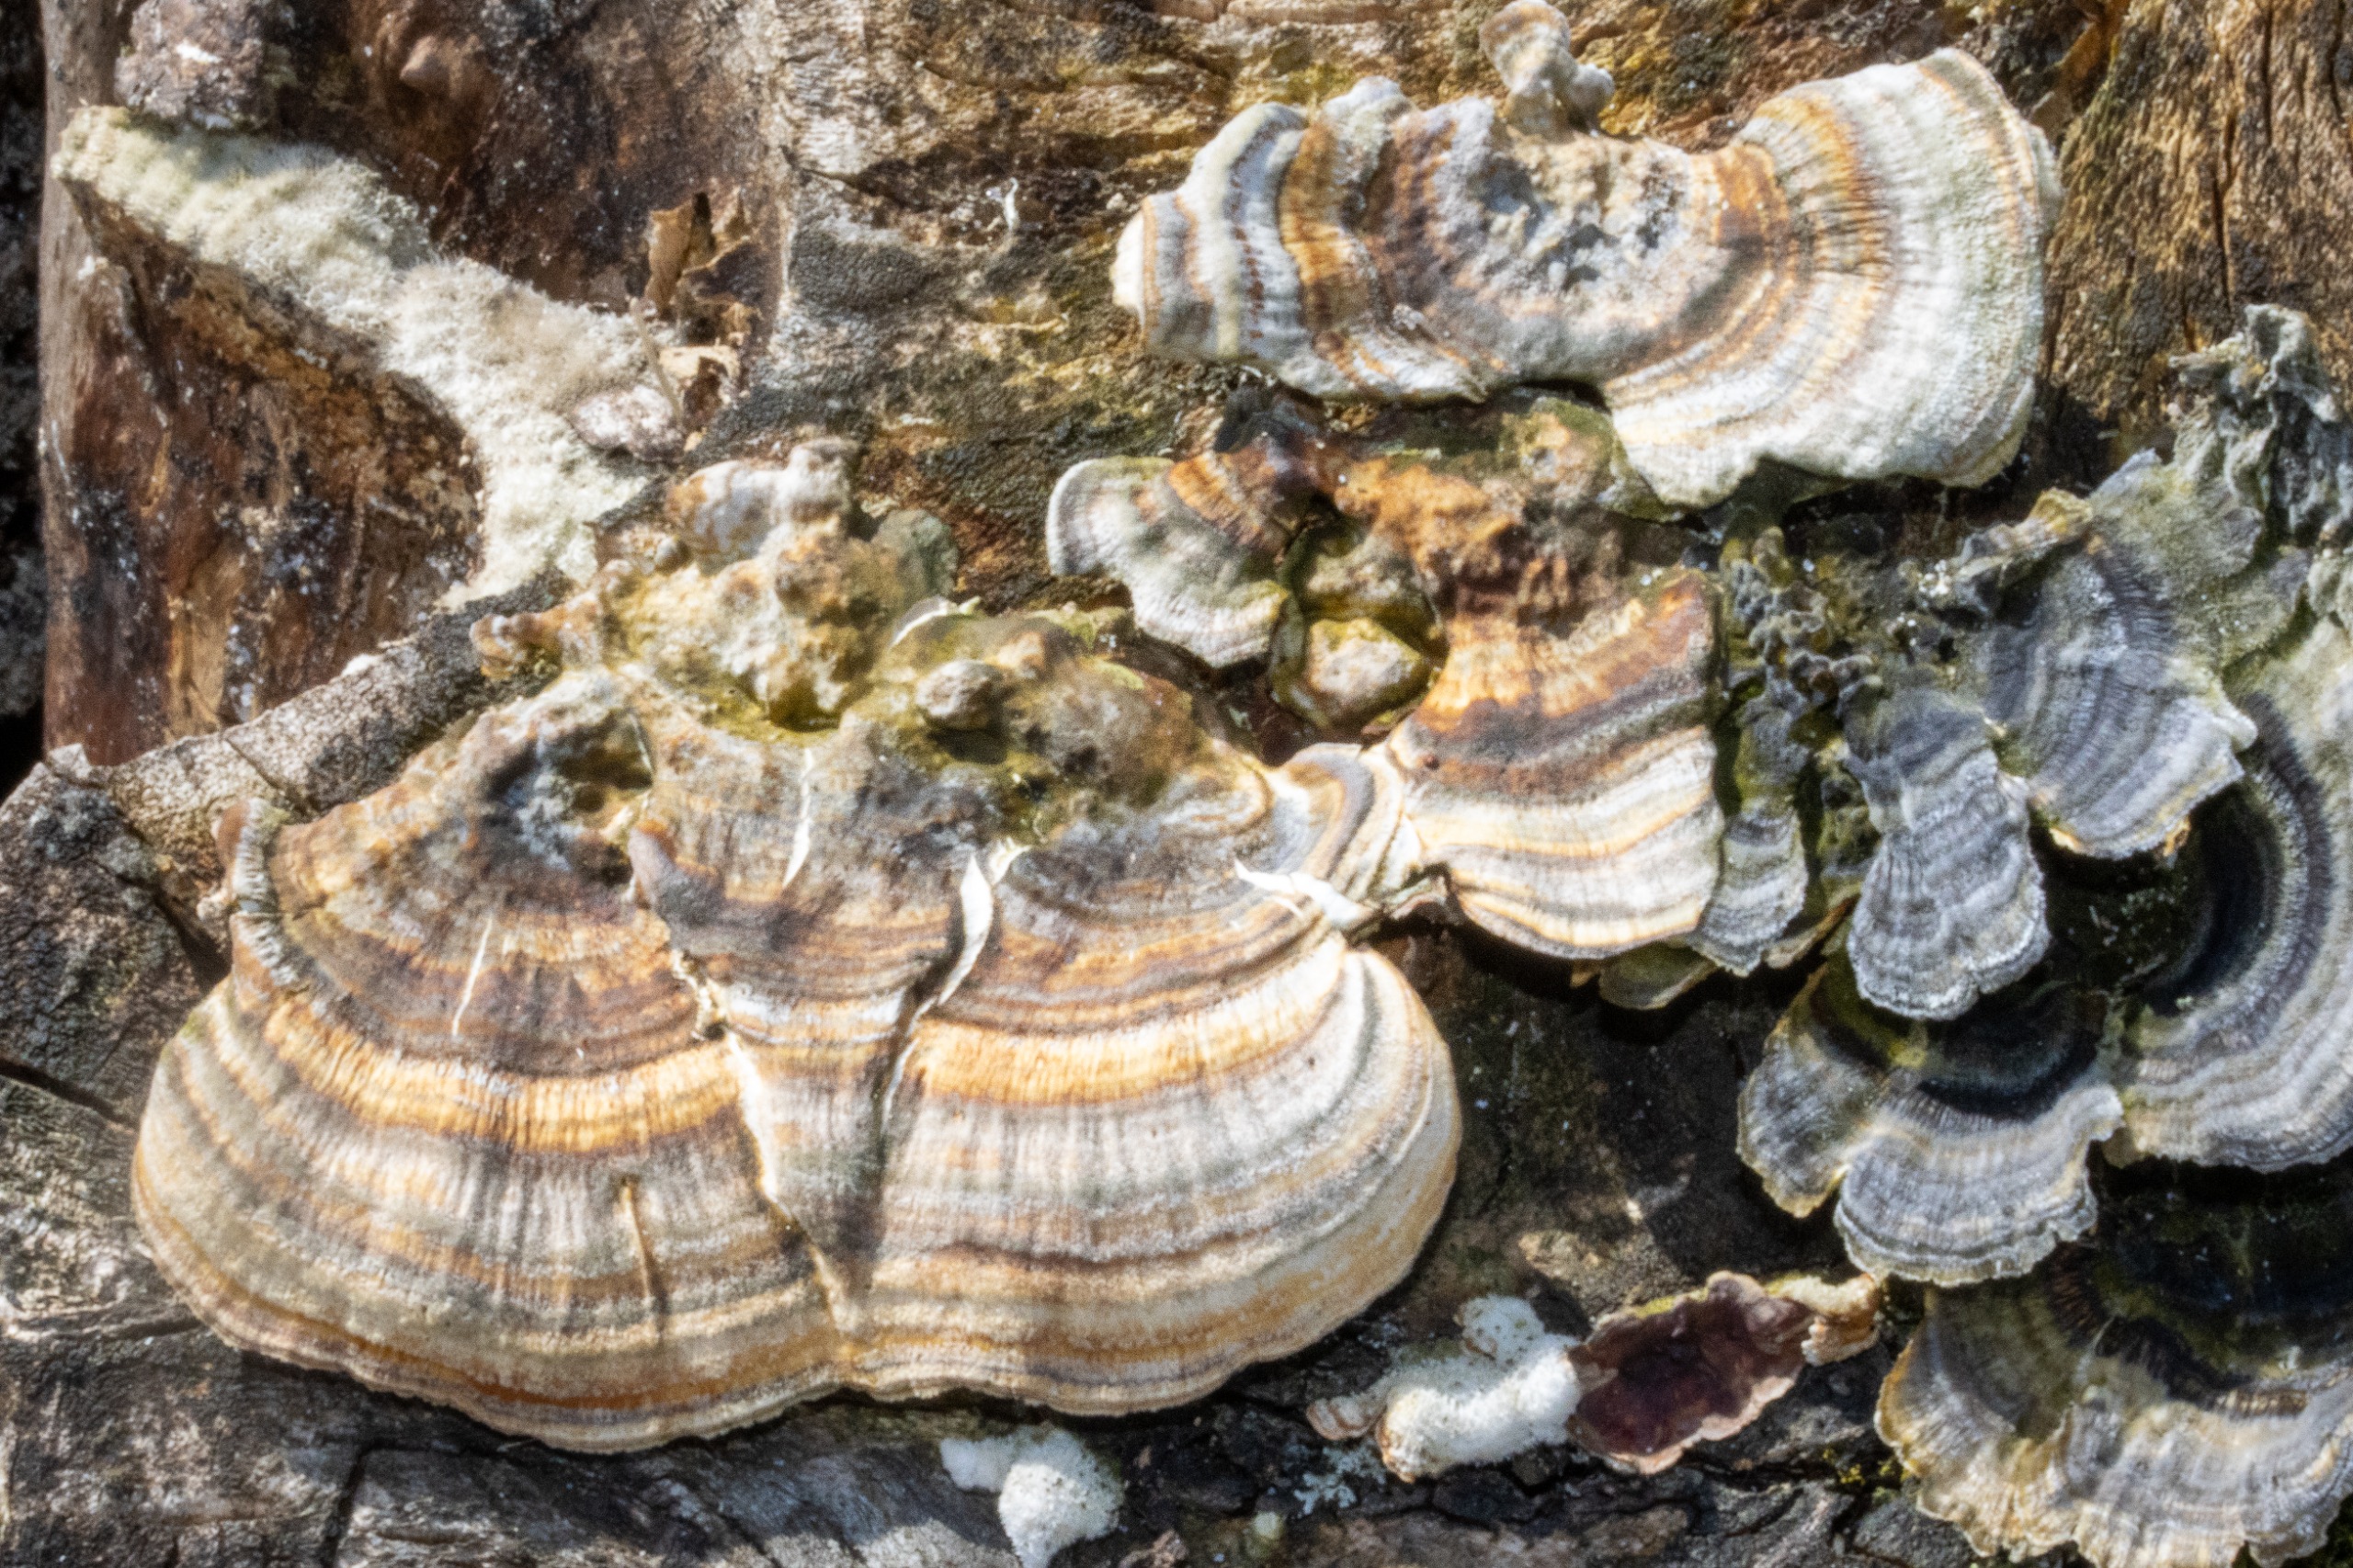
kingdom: Fungi
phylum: Basidiomycota
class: Agaricomycetes
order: Polyporales
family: Polyporaceae
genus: Trametes
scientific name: Trametes versicolor
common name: Broget læderporesvamp
